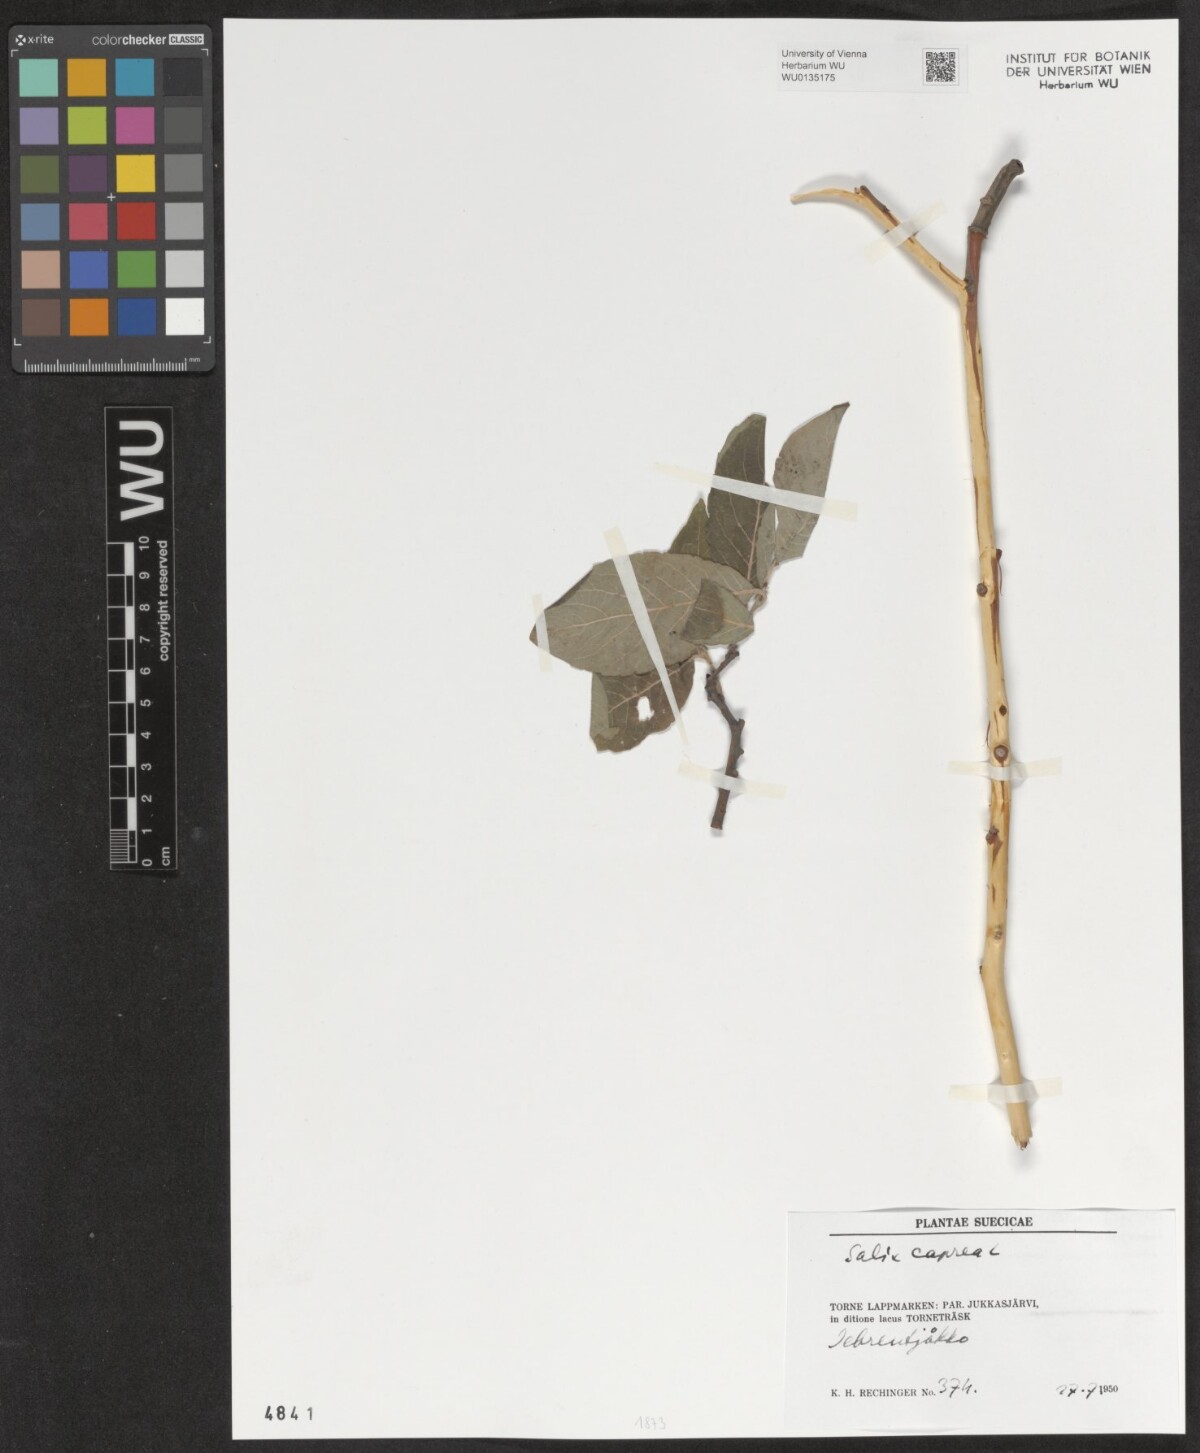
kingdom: Plantae
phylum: Tracheophyta
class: Magnoliopsida
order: Malpighiales
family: Salicaceae
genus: Salix
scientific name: Salix caprea
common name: Goat willow
